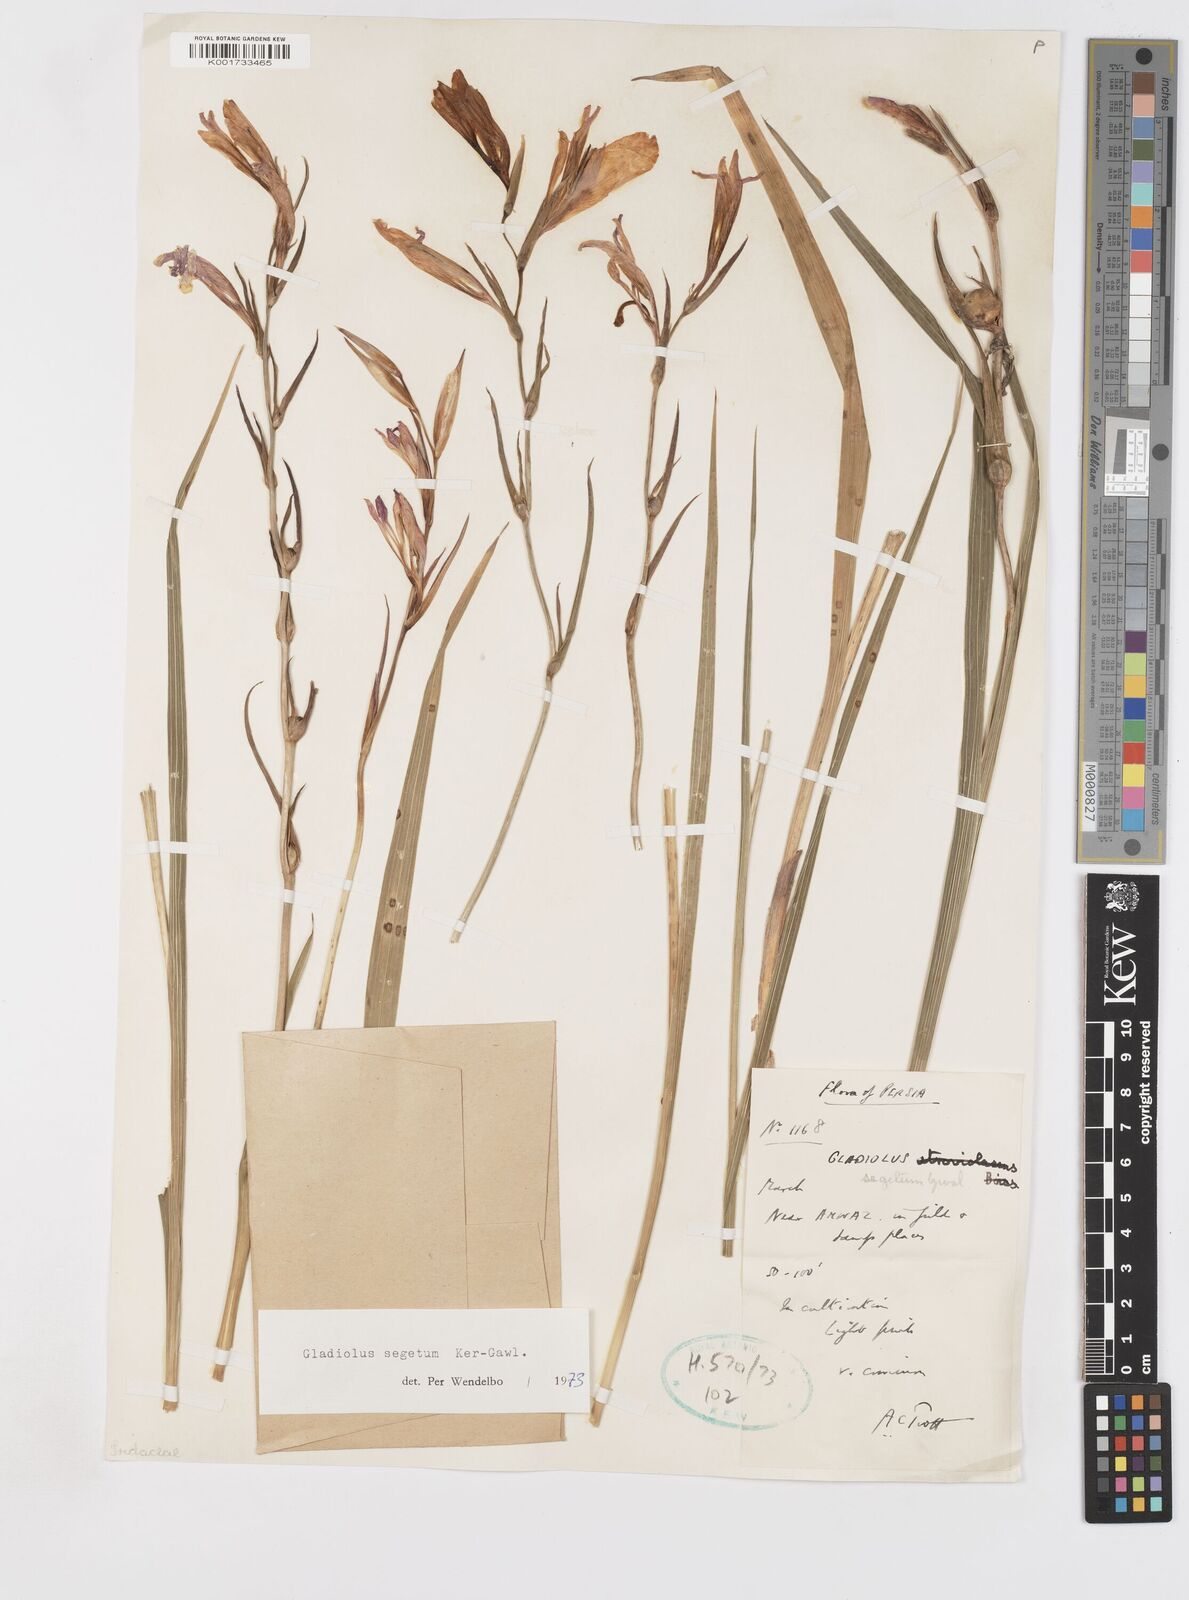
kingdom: Plantae
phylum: Tracheophyta
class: Liliopsida
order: Asparagales
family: Iridaceae
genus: Gladiolus
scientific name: Gladiolus italicus
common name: Field gladiolus
